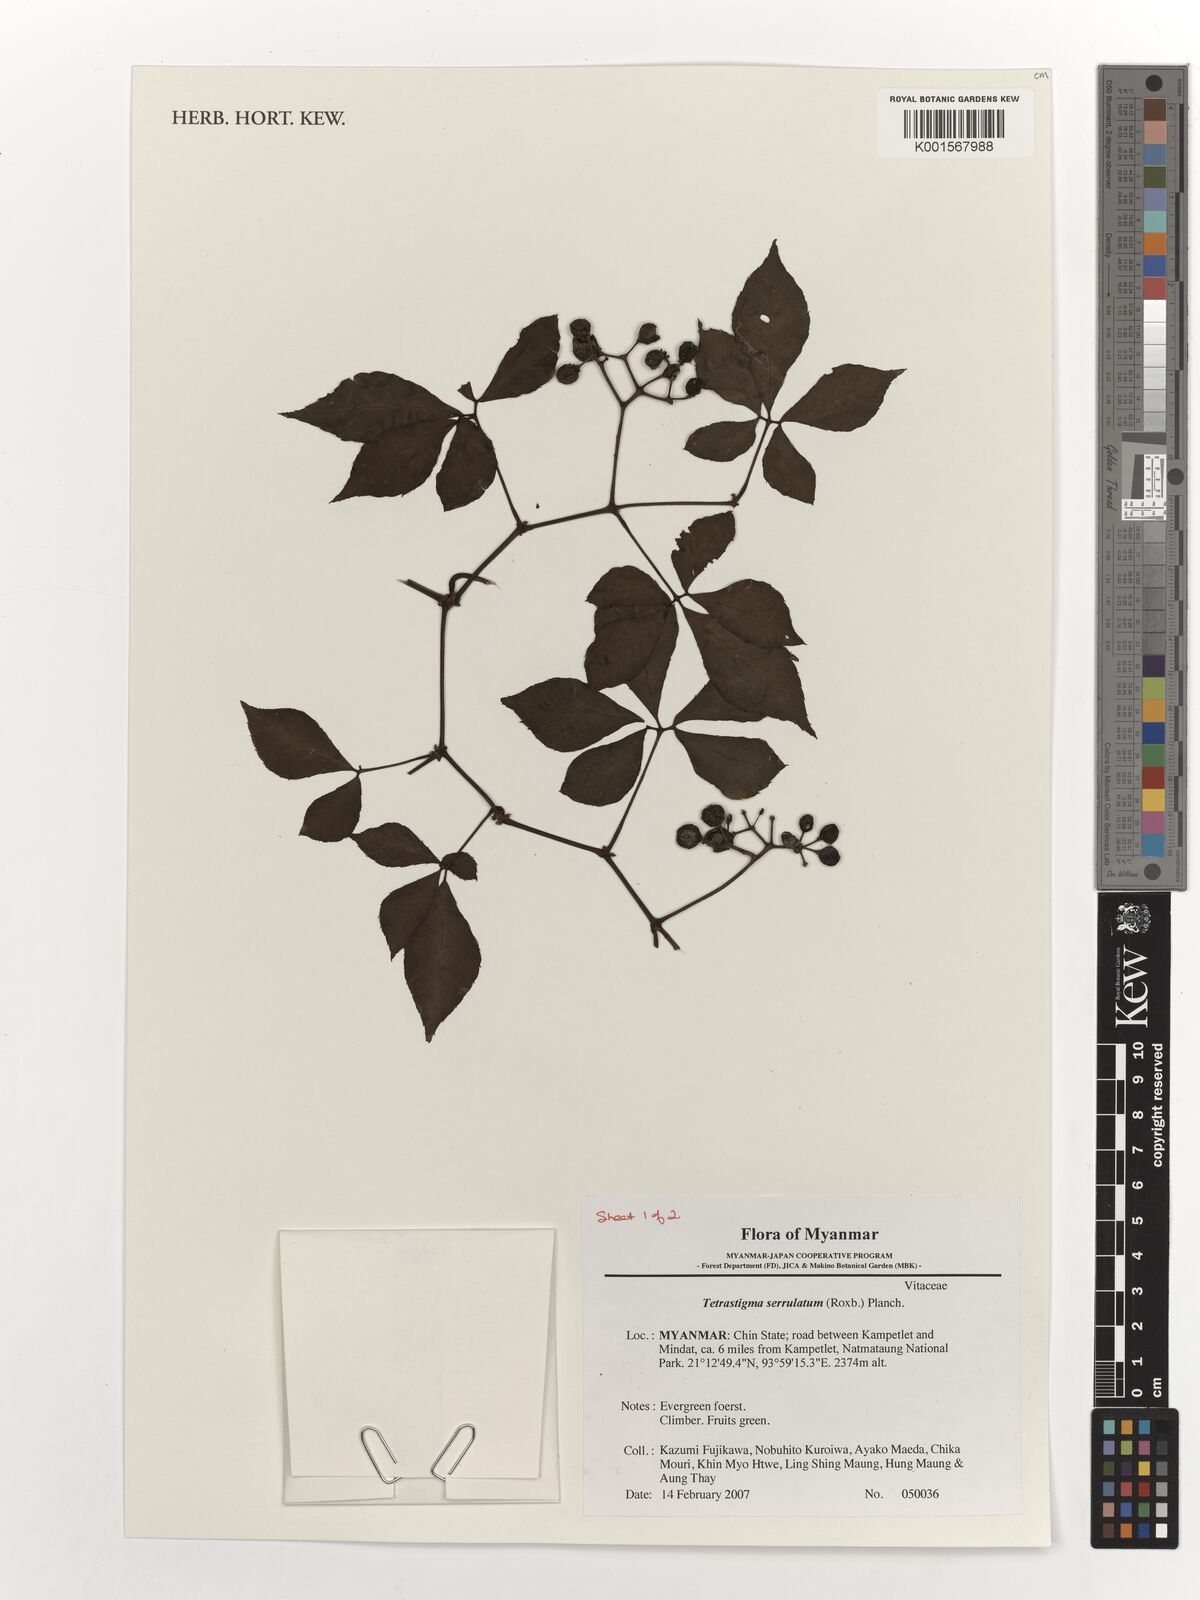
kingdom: Plantae
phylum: Tracheophyta
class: Magnoliopsida
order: Vitales
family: Vitaceae
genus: Tetrastigma
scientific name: Tetrastigma serrulatum
